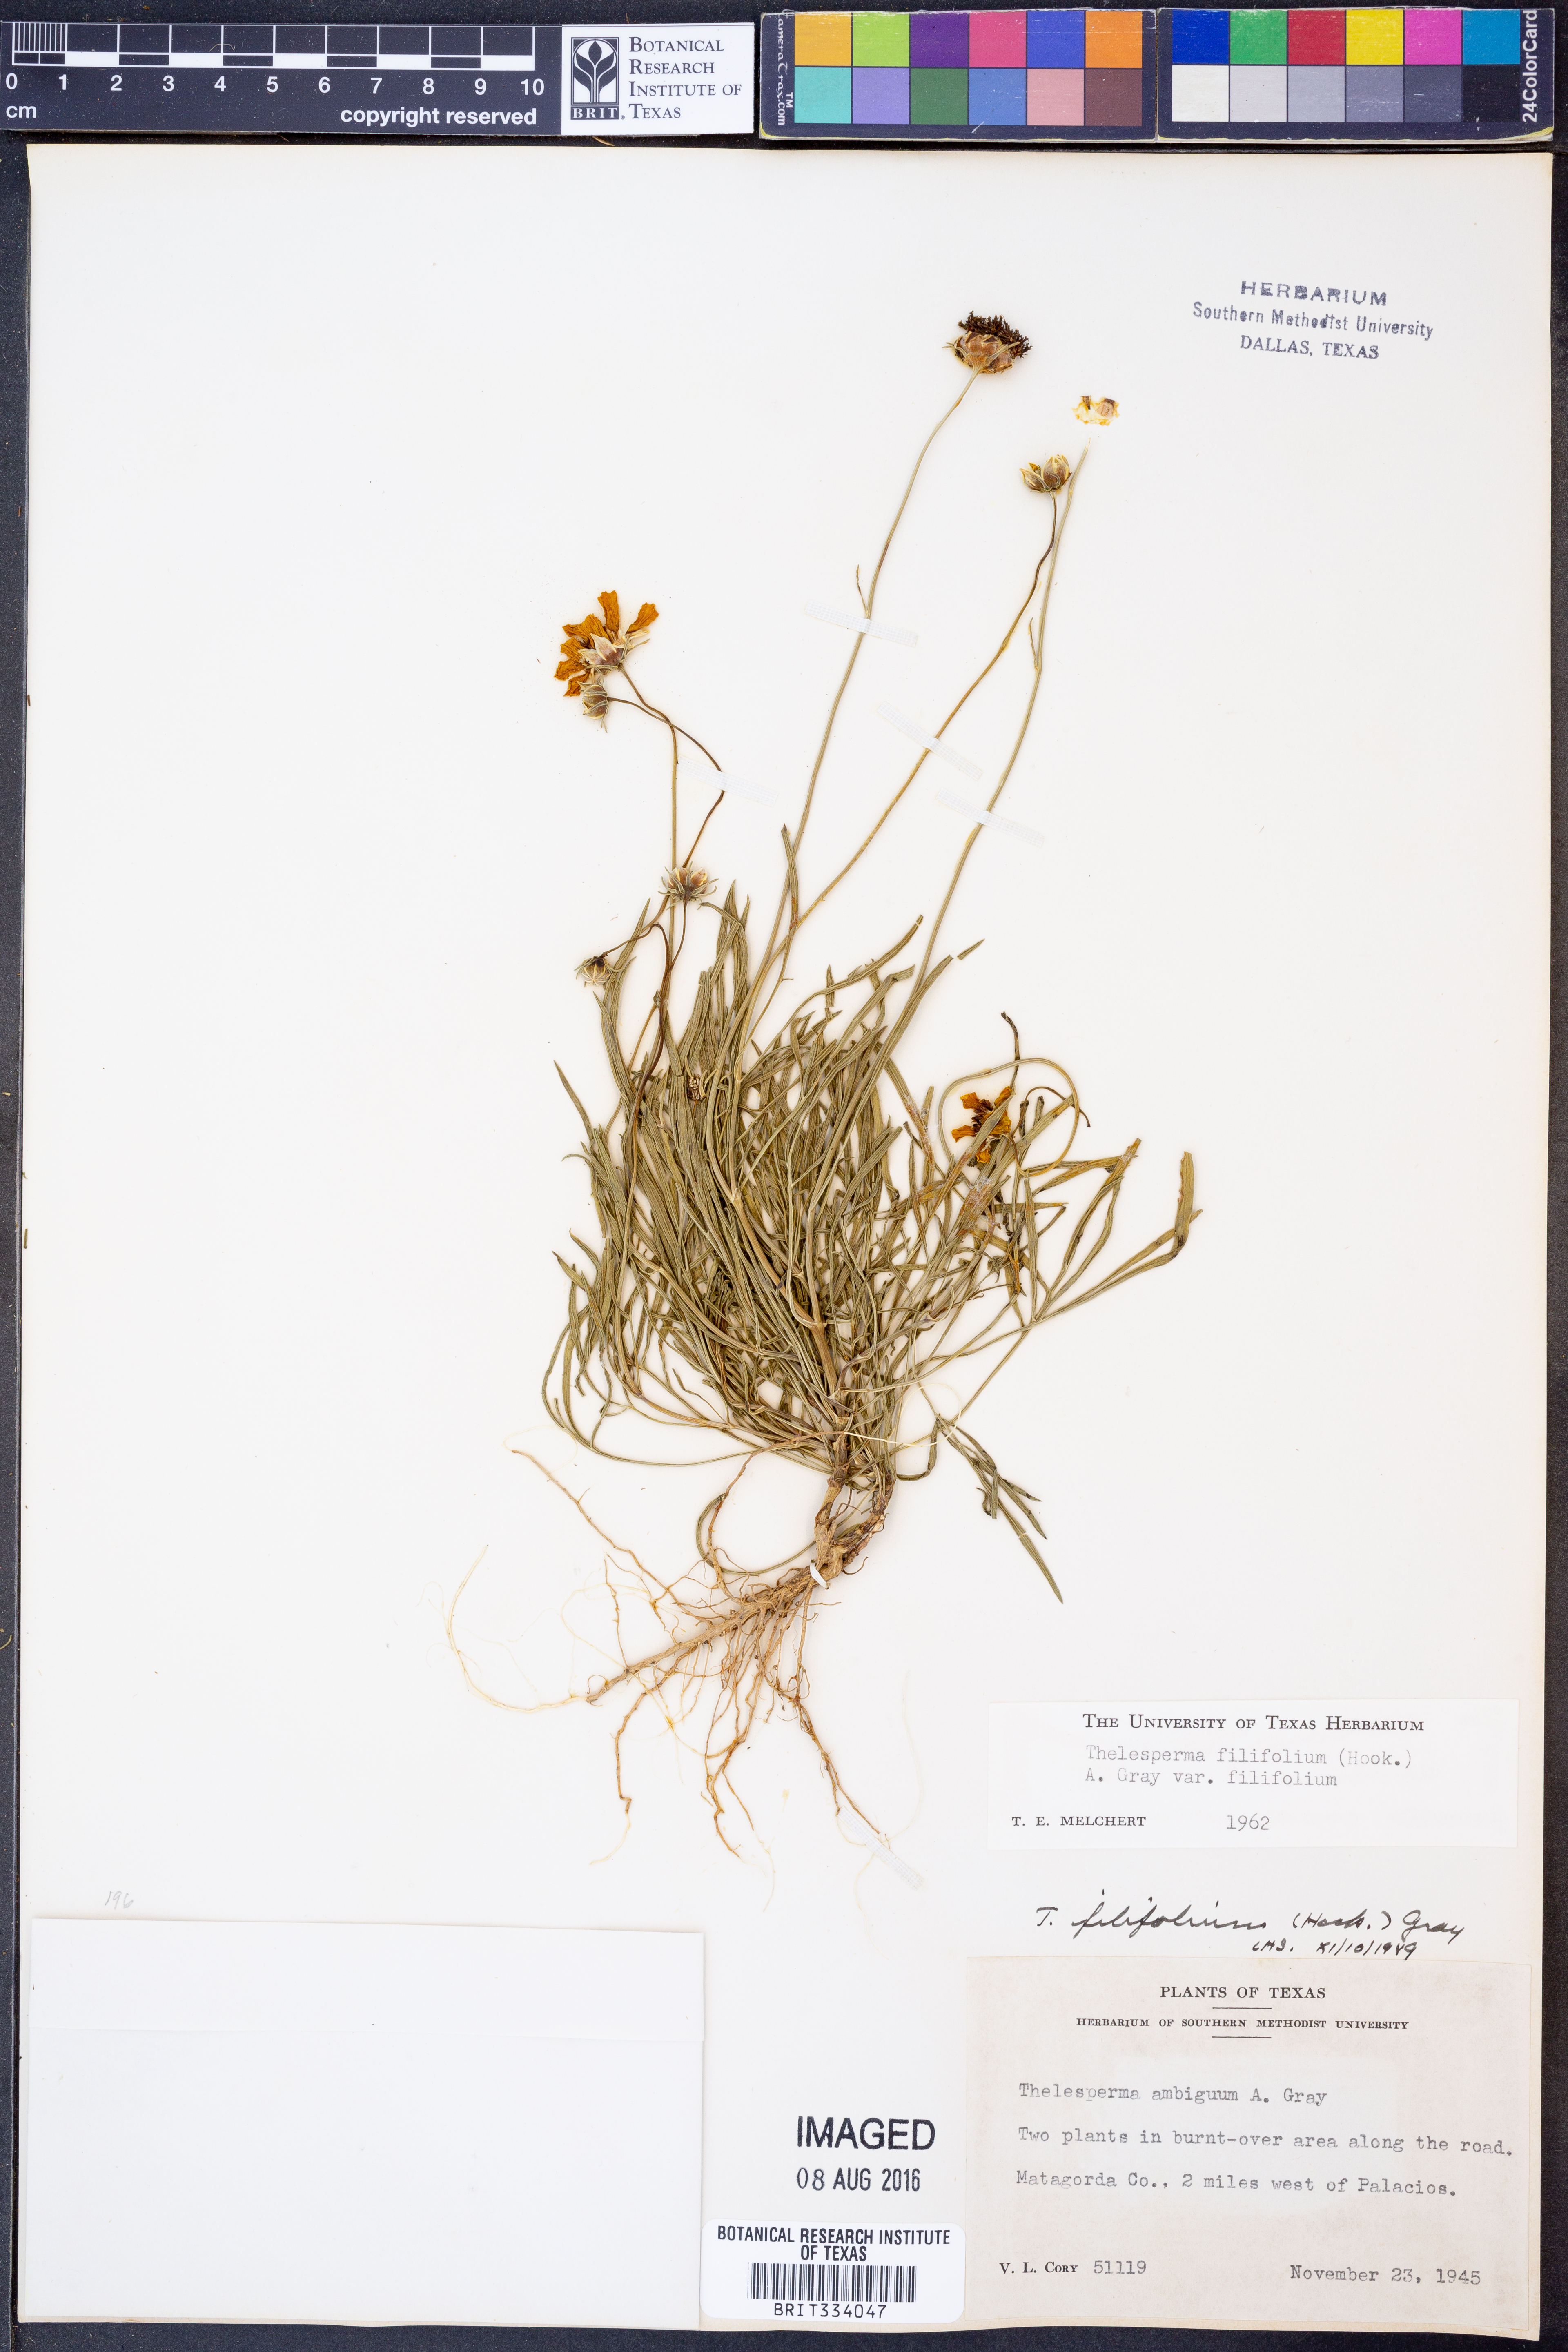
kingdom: Plantae
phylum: Tracheophyta
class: Magnoliopsida
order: Asterales
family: Asteraceae
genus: Thelesperma
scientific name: Thelesperma filifolium
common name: Stiff greenthread
